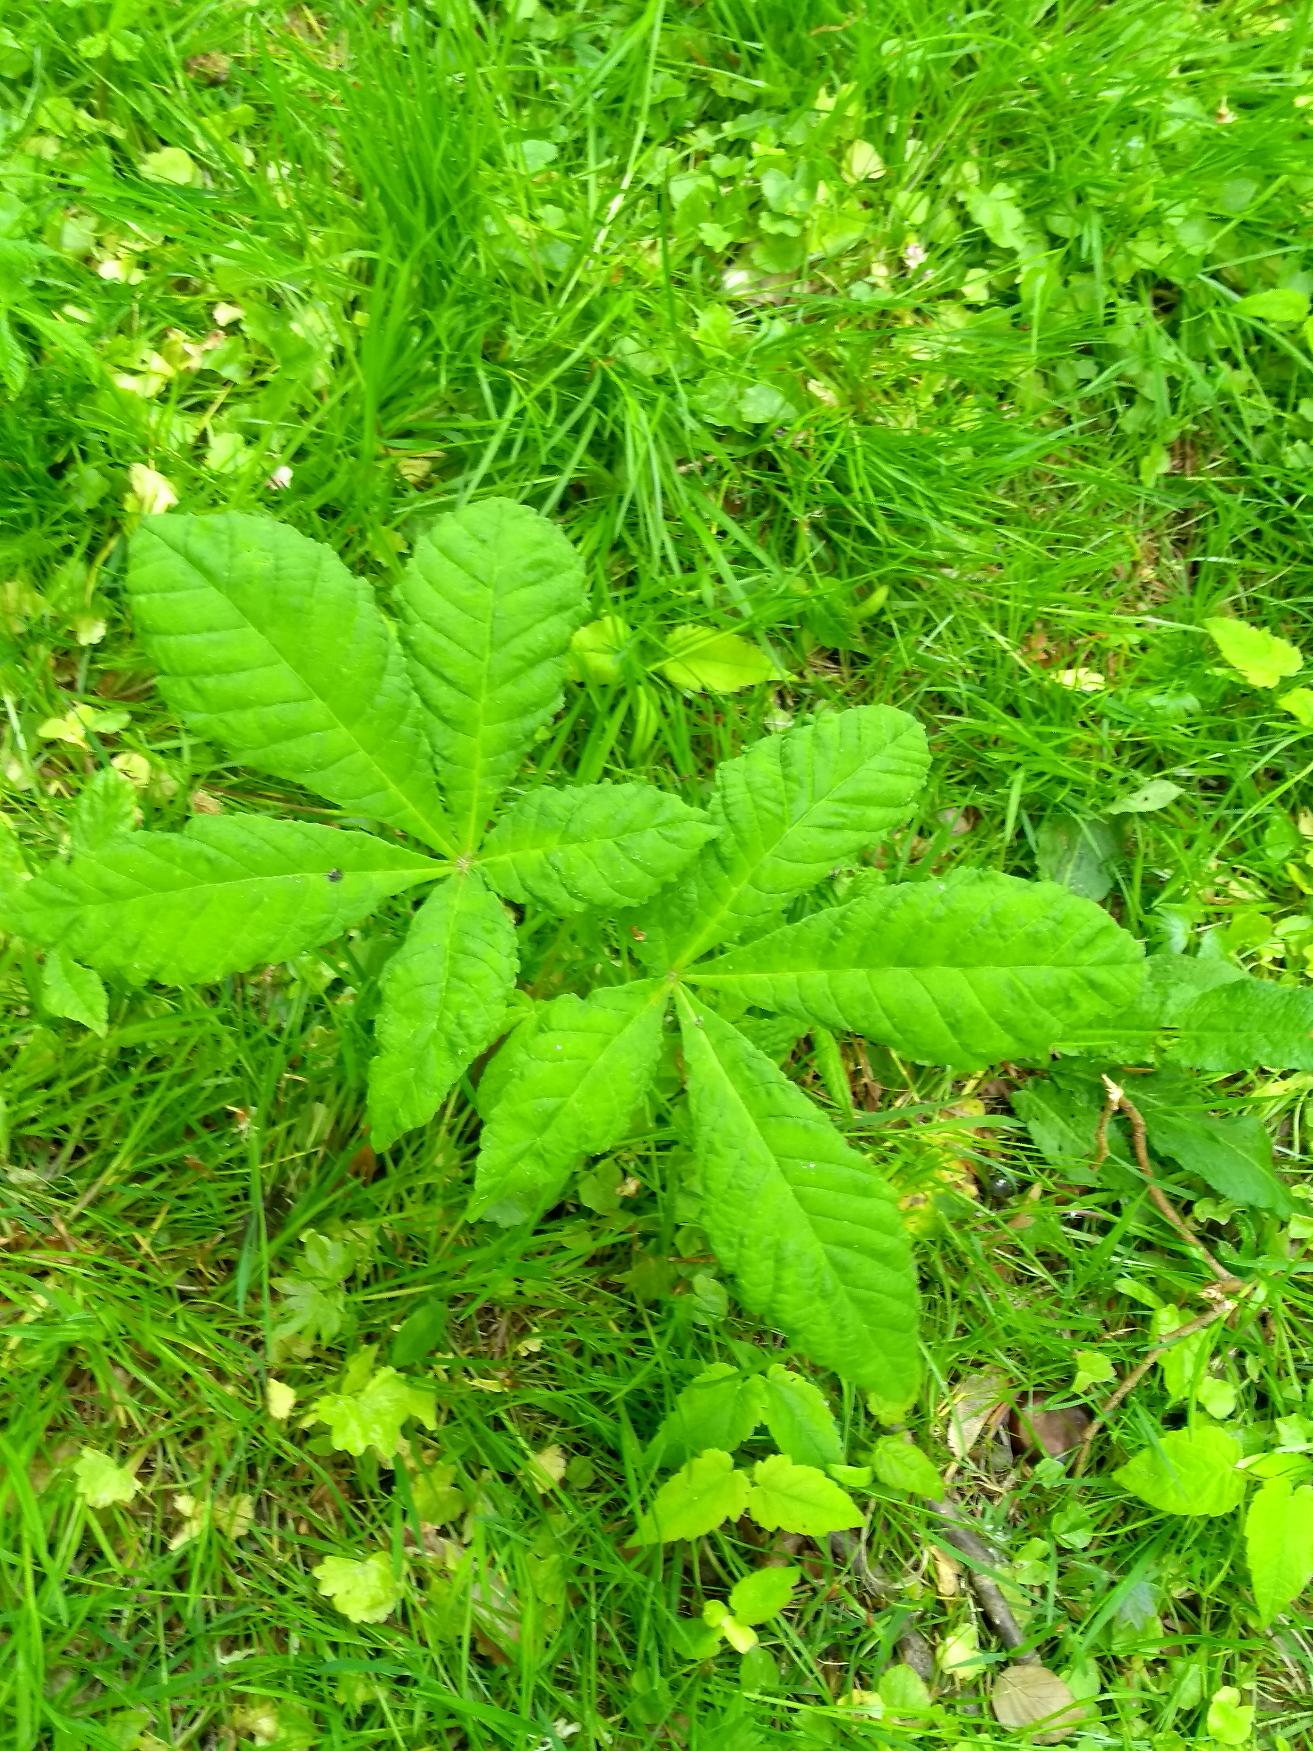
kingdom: Plantae
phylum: Tracheophyta
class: Magnoliopsida
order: Sapindales
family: Sapindaceae
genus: Aesculus
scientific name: Aesculus hippocastanum
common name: Hestekastanie
